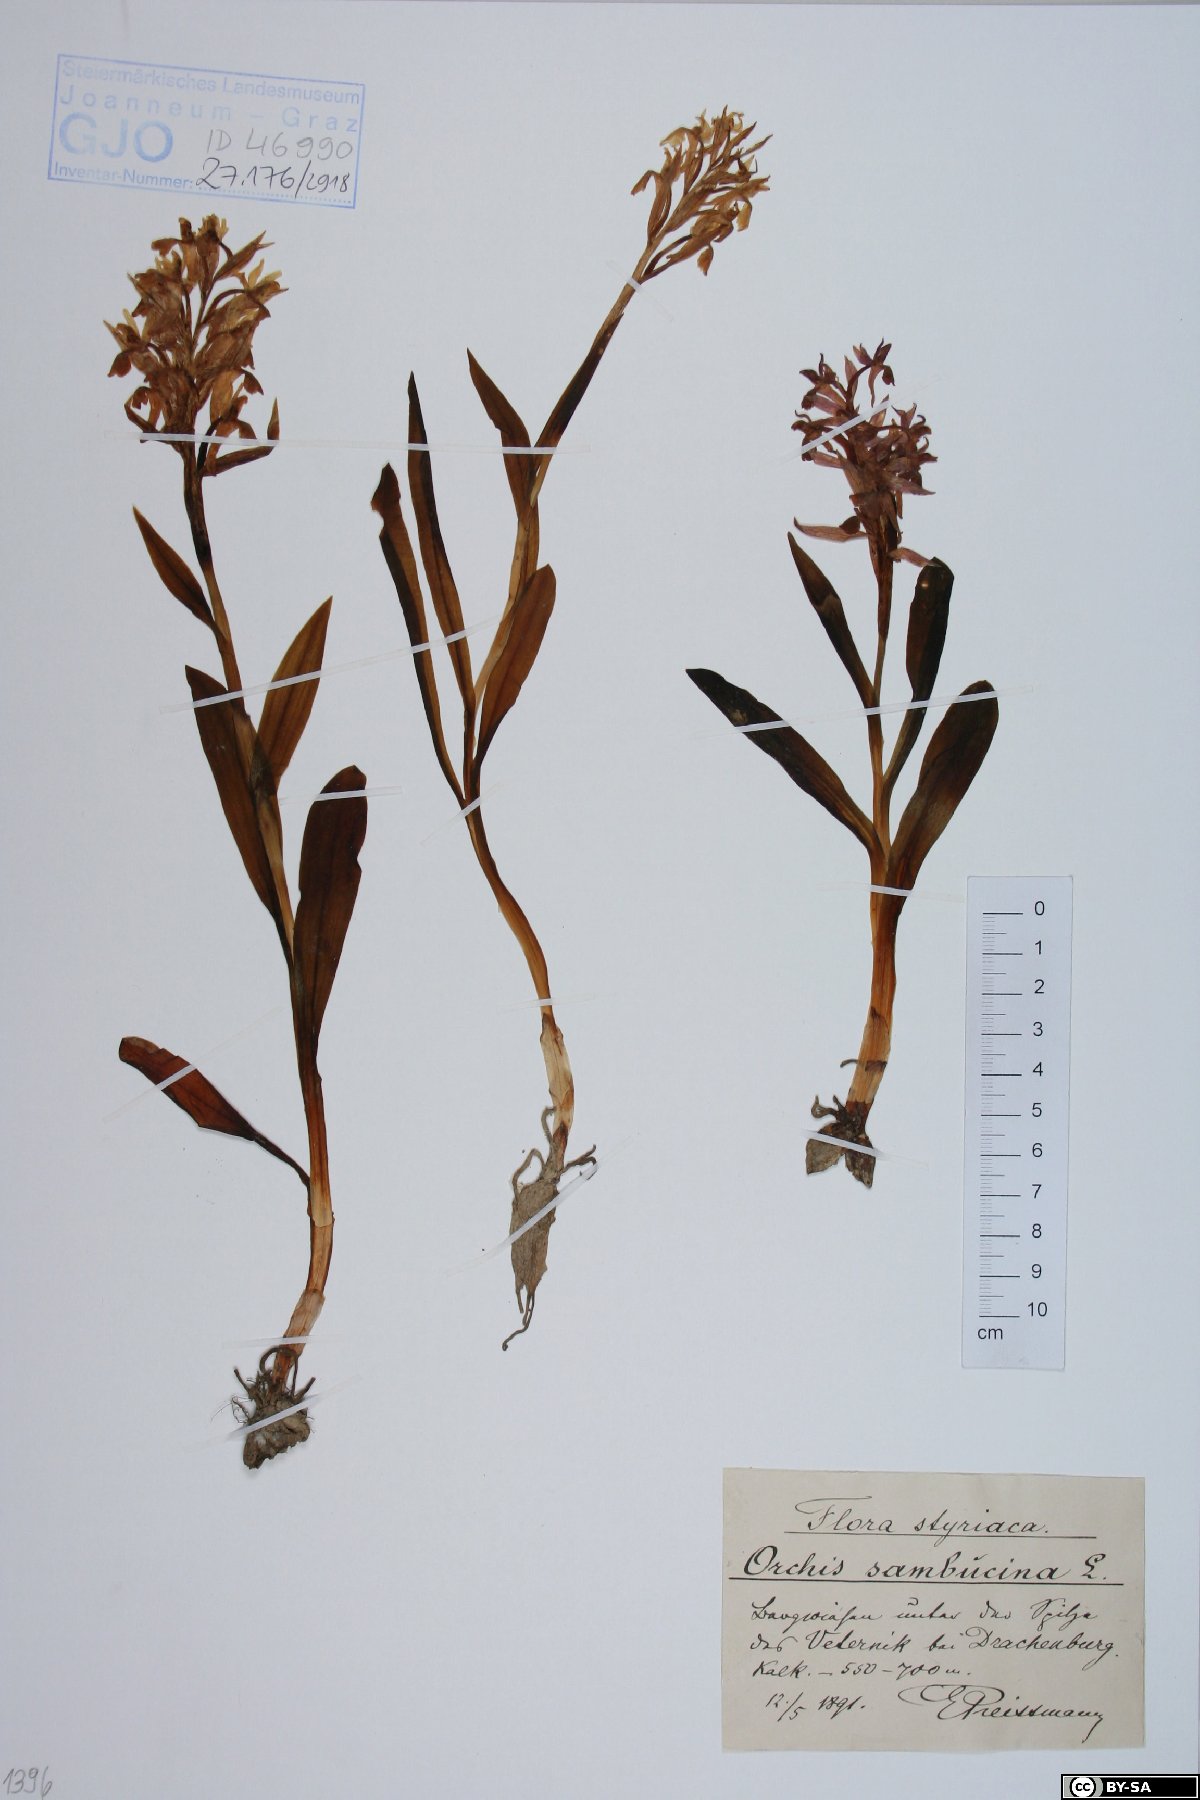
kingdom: Plantae
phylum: Tracheophyta
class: Liliopsida
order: Asparagales
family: Orchidaceae
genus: Dactylorhiza
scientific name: Dactylorhiza sambucina
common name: Elder-flowered orchid
